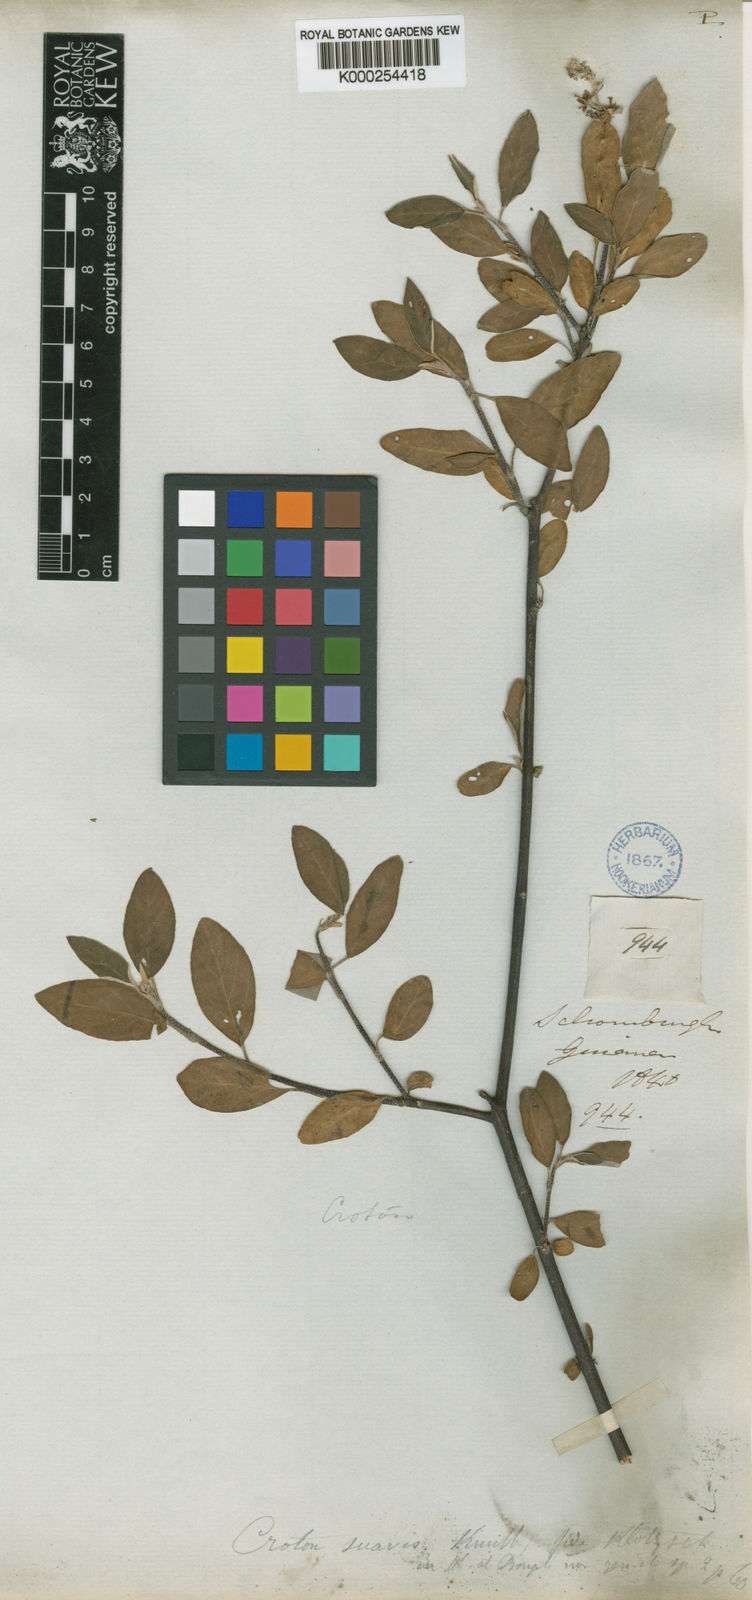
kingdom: Plantae
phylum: Tracheophyta
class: Magnoliopsida
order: Malpighiales
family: Euphorbiaceae
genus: Croton
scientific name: Croton suavis
